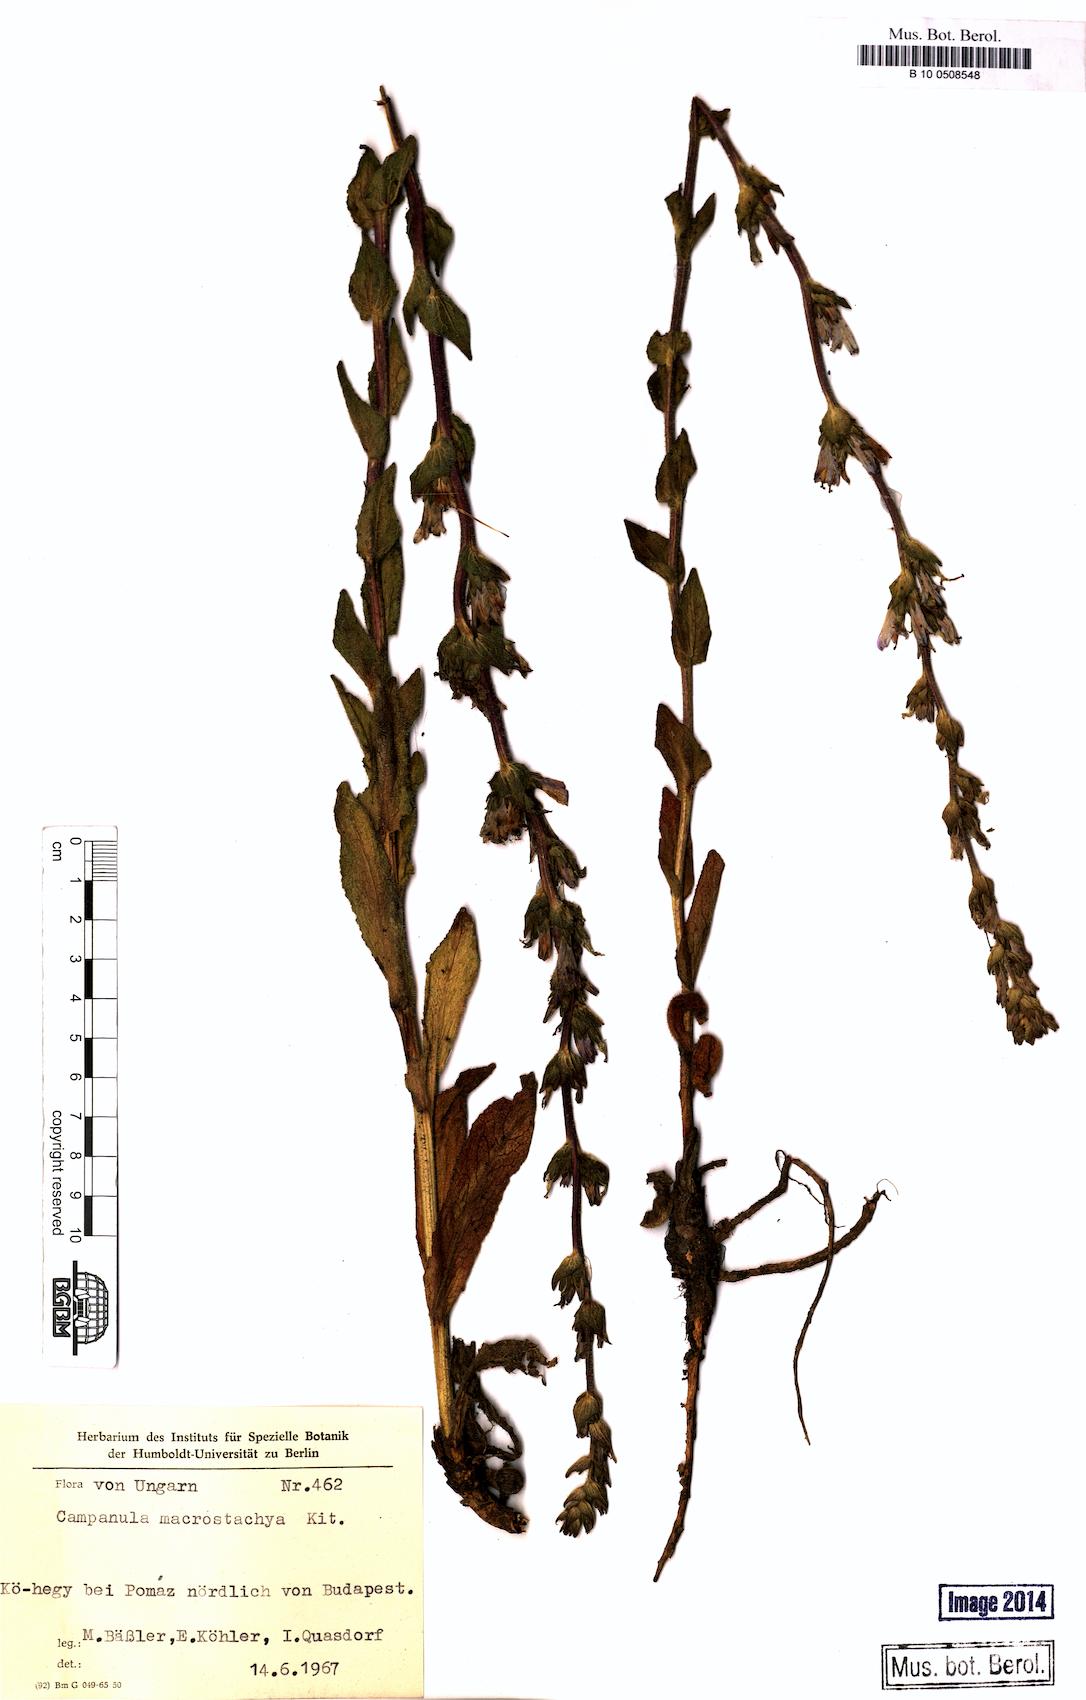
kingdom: Plantae
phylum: Tracheophyta
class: Magnoliopsida
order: Asterales
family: Campanulaceae
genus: Campanula
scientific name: Campanula macrostachya
